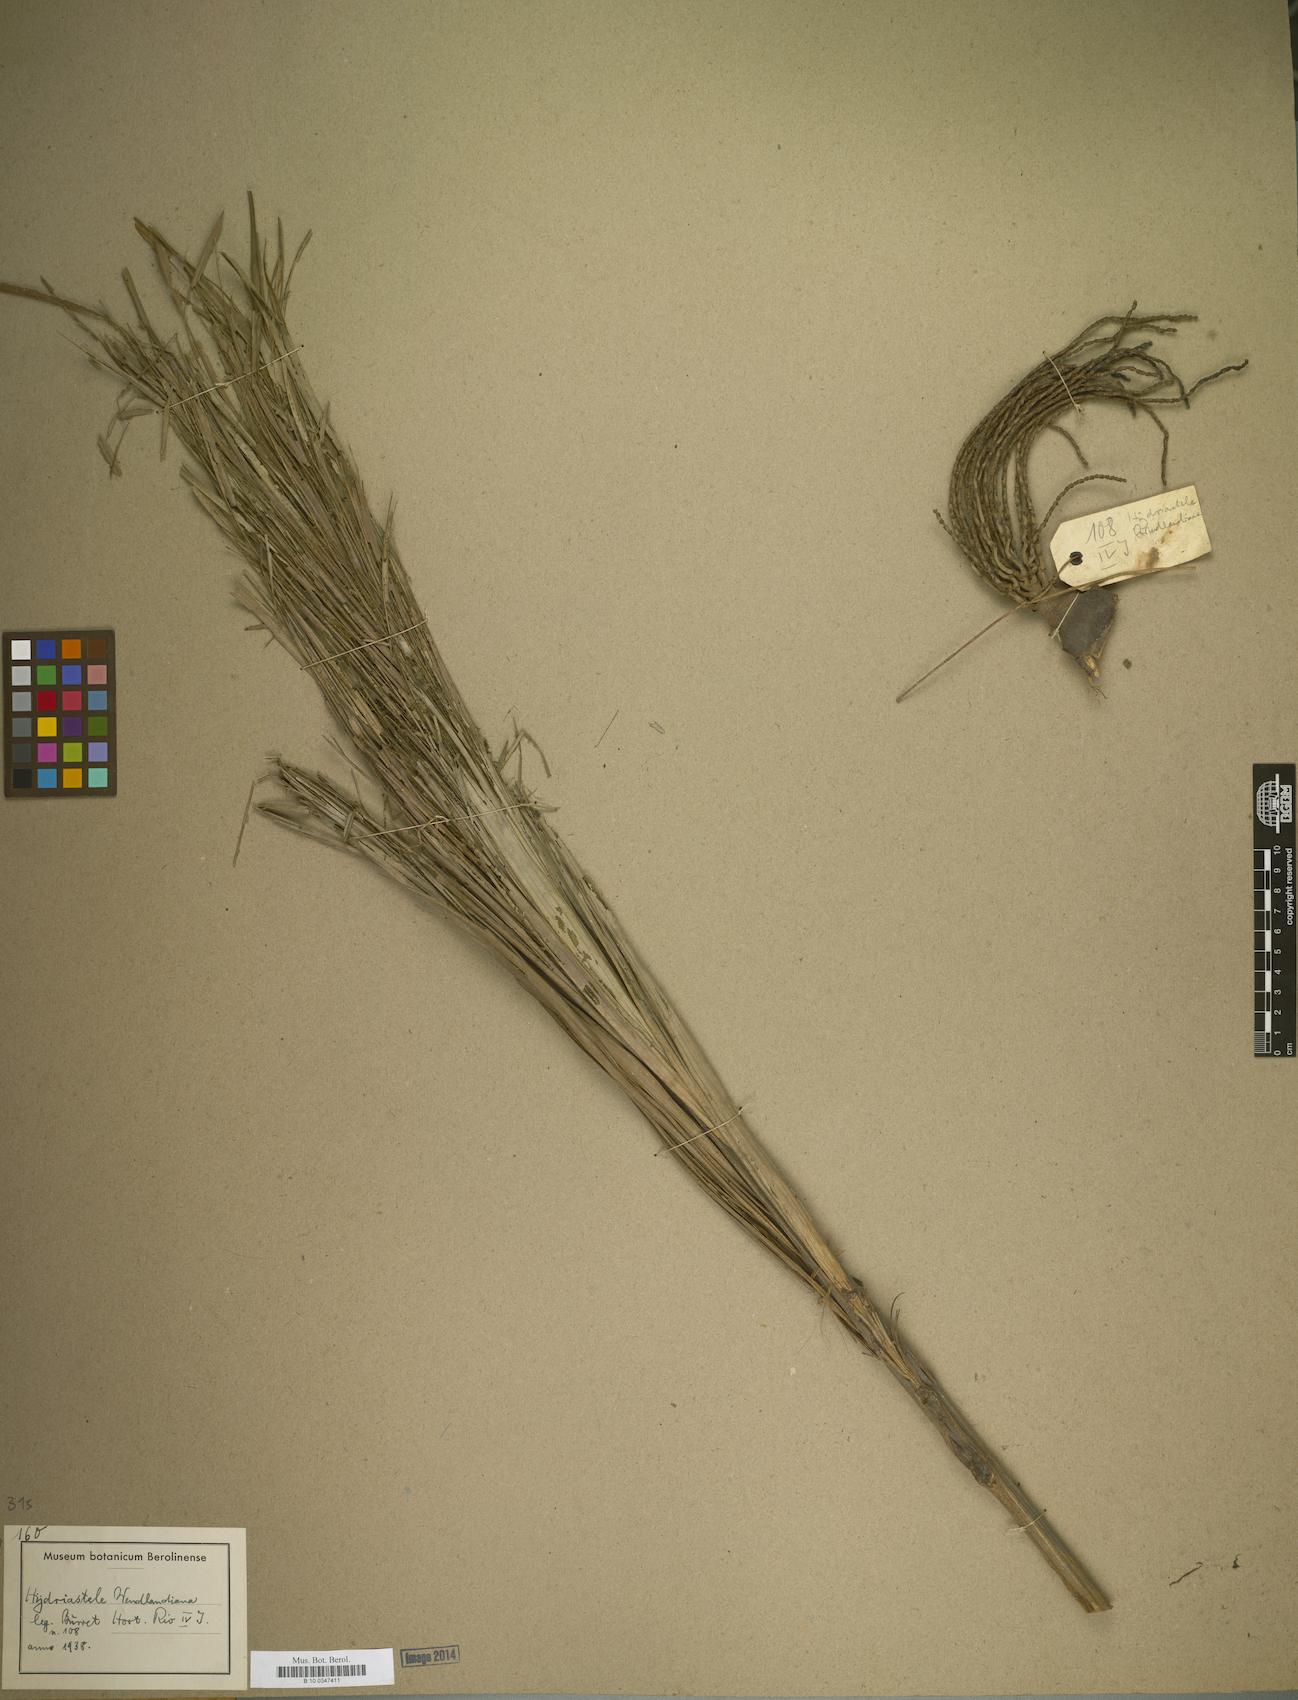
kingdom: Plantae
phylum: Tracheophyta
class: Liliopsida
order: Arecales
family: Arecaceae
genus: Hydriastele
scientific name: Hydriastele wendlandiana
